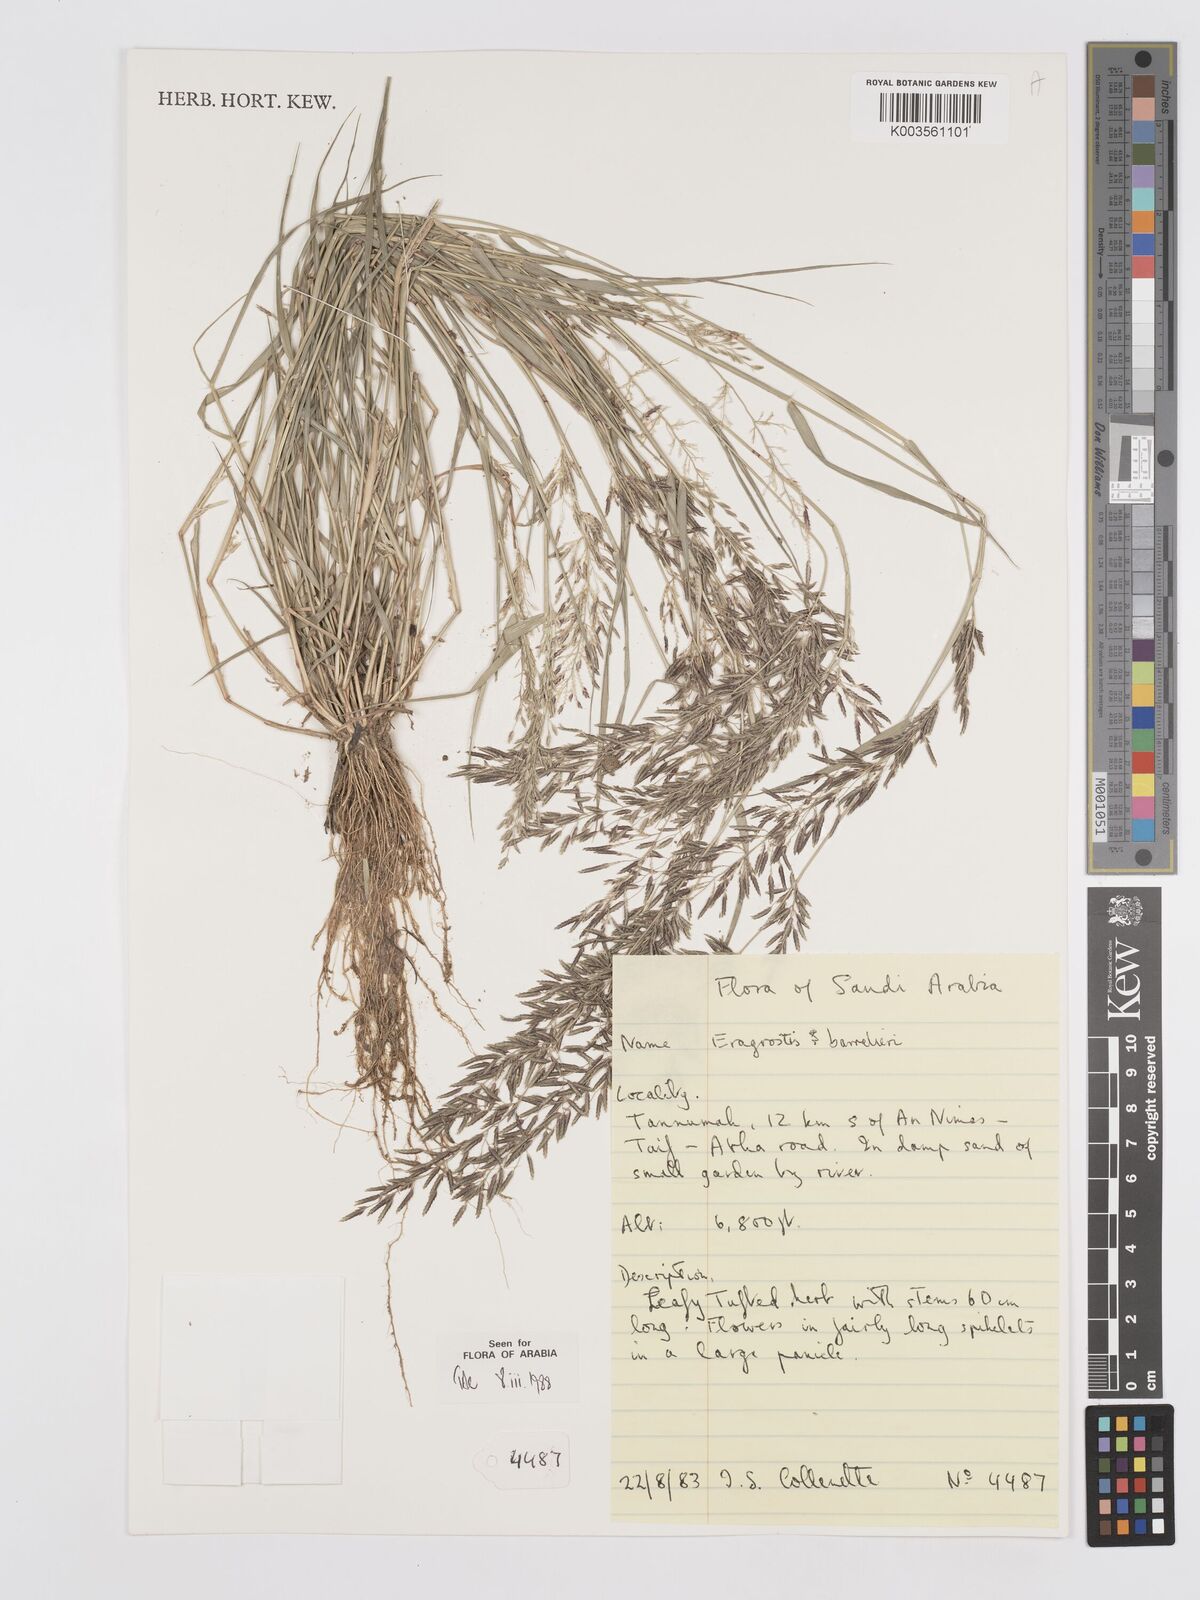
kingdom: Plantae
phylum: Tracheophyta
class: Liliopsida
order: Poales
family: Poaceae
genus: Eragrostis
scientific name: Eragrostis barrelieri
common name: Mediterranean lovegrass
